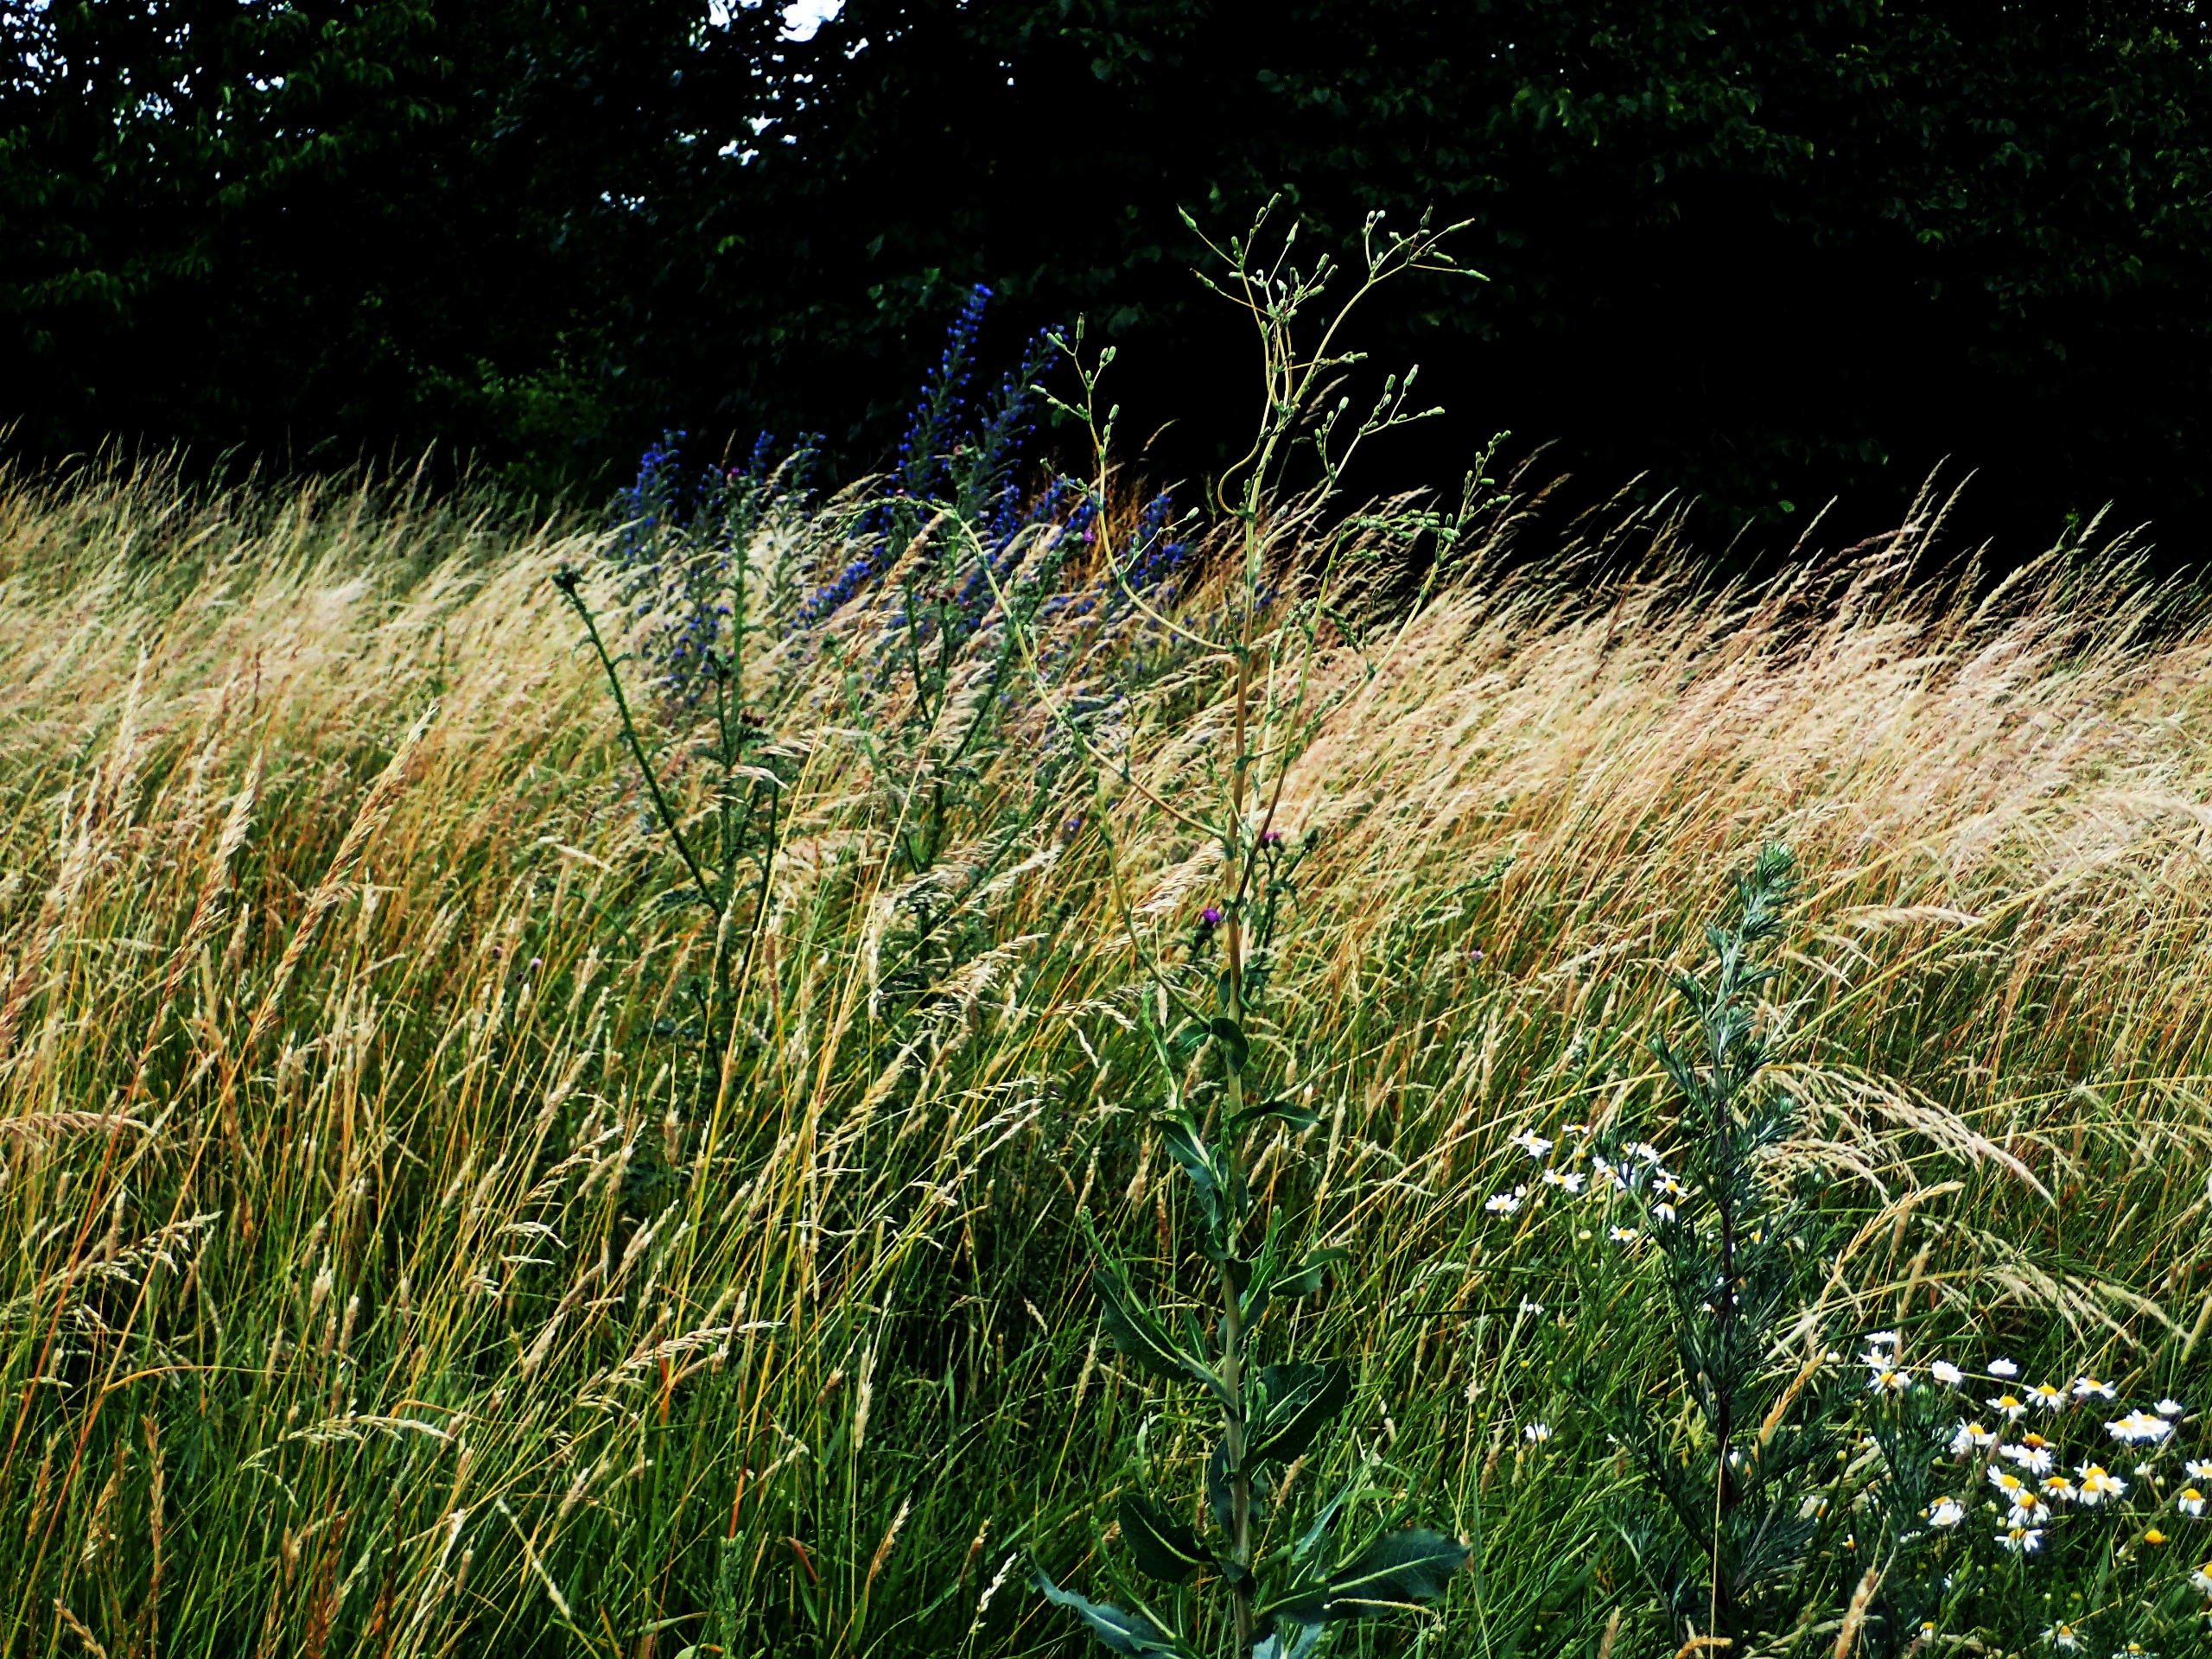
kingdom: Plantae
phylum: Tracheophyta
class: Magnoliopsida
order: Asterales
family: Asteraceae
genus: Lactuca
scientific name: Lactuca serriola
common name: Tornet salat
